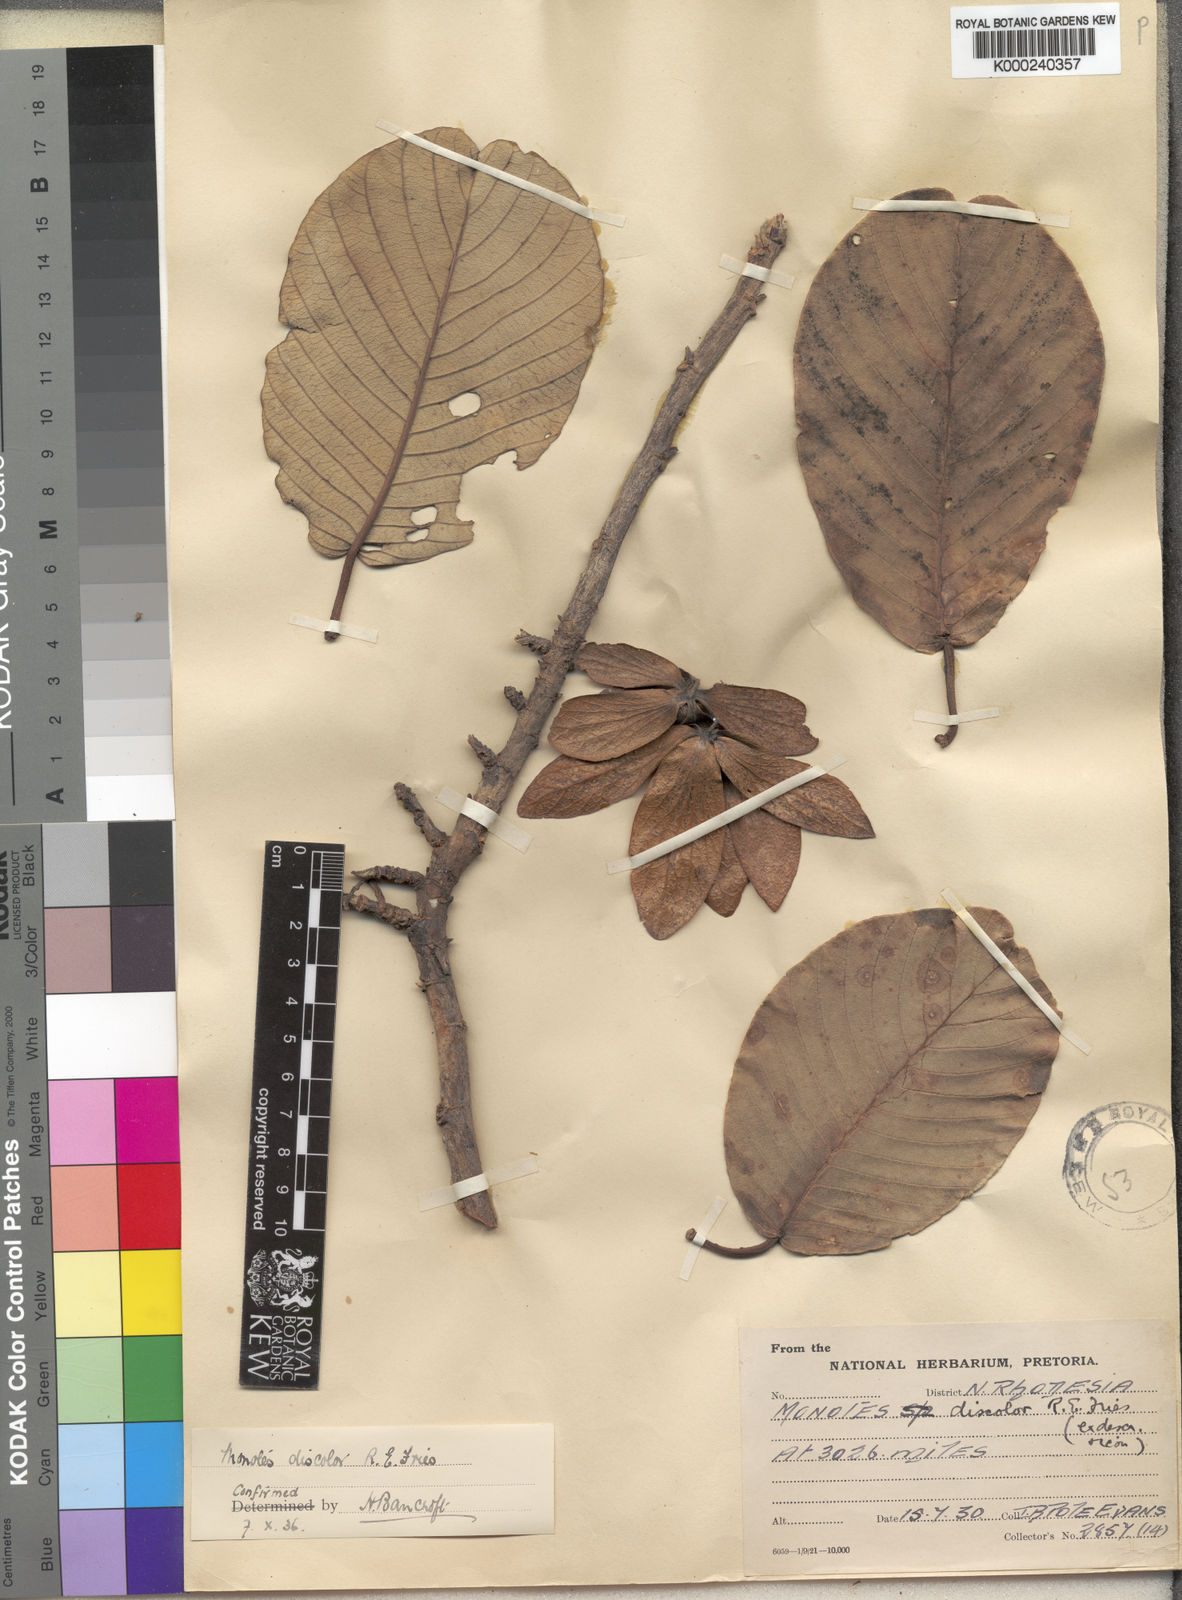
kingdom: Plantae
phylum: Tracheophyta
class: Magnoliopsida
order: Malvales
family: Dipterocarpaceae
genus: Monotes
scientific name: Monotes hypoleucus
